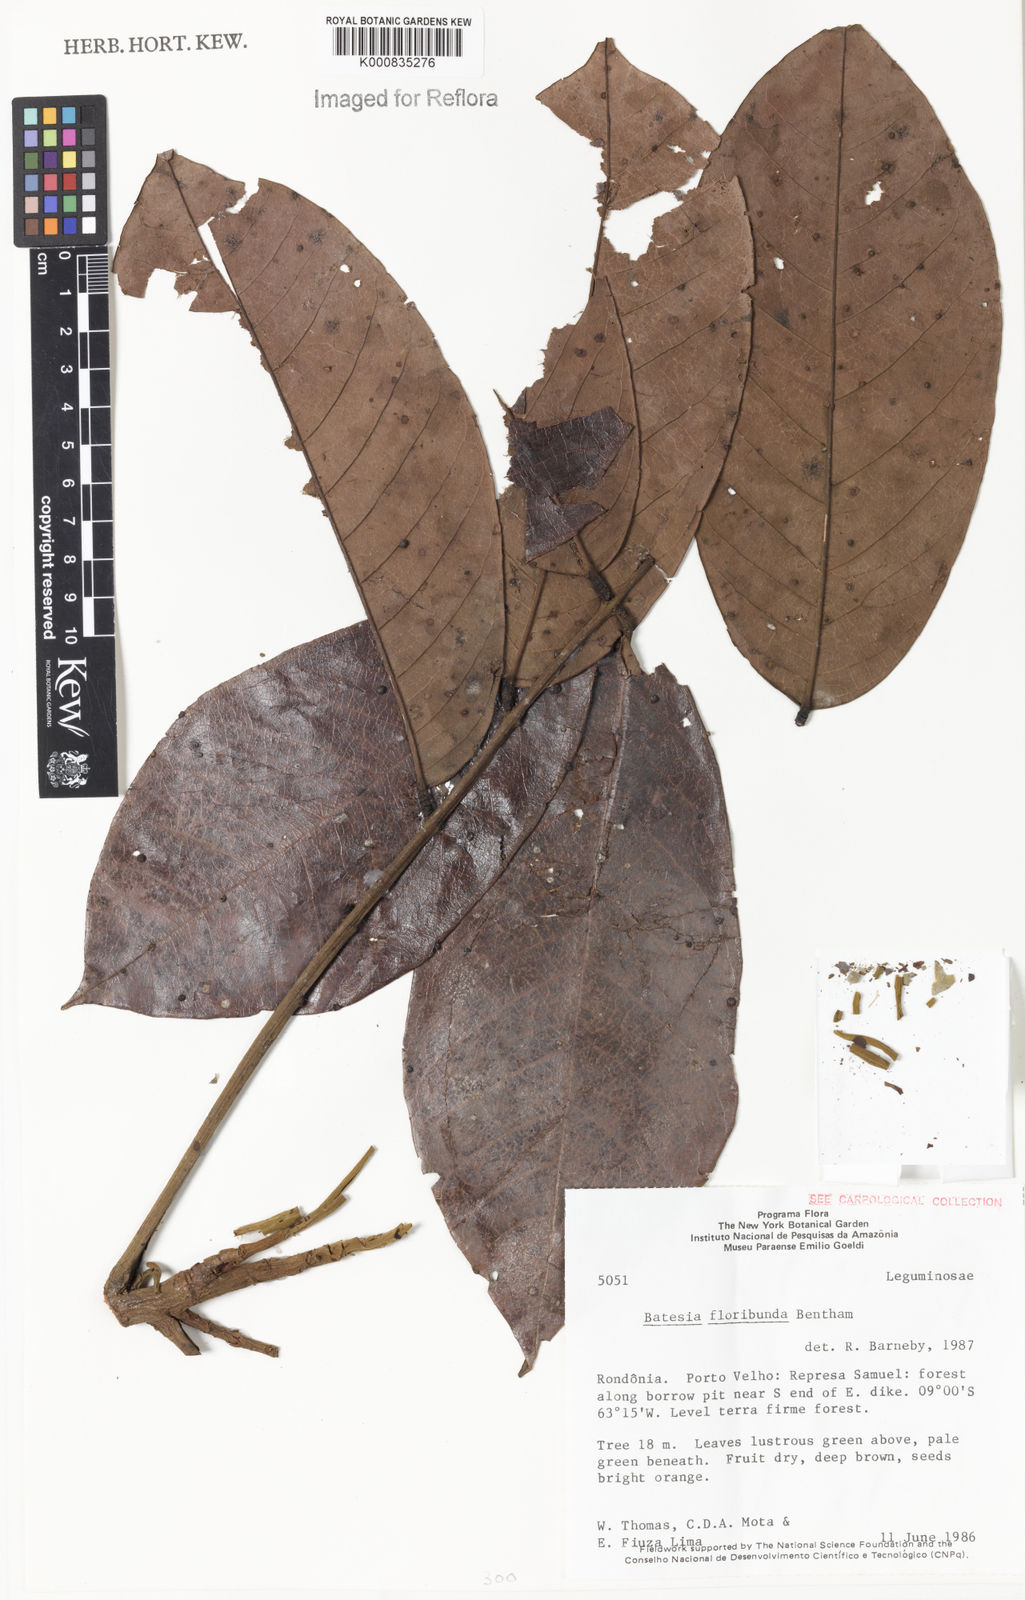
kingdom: Plantae
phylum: Tracheophyta
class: Magnoliopsida
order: Fabales
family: Fabaceae
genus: Batesia
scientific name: Batesia floribunda
